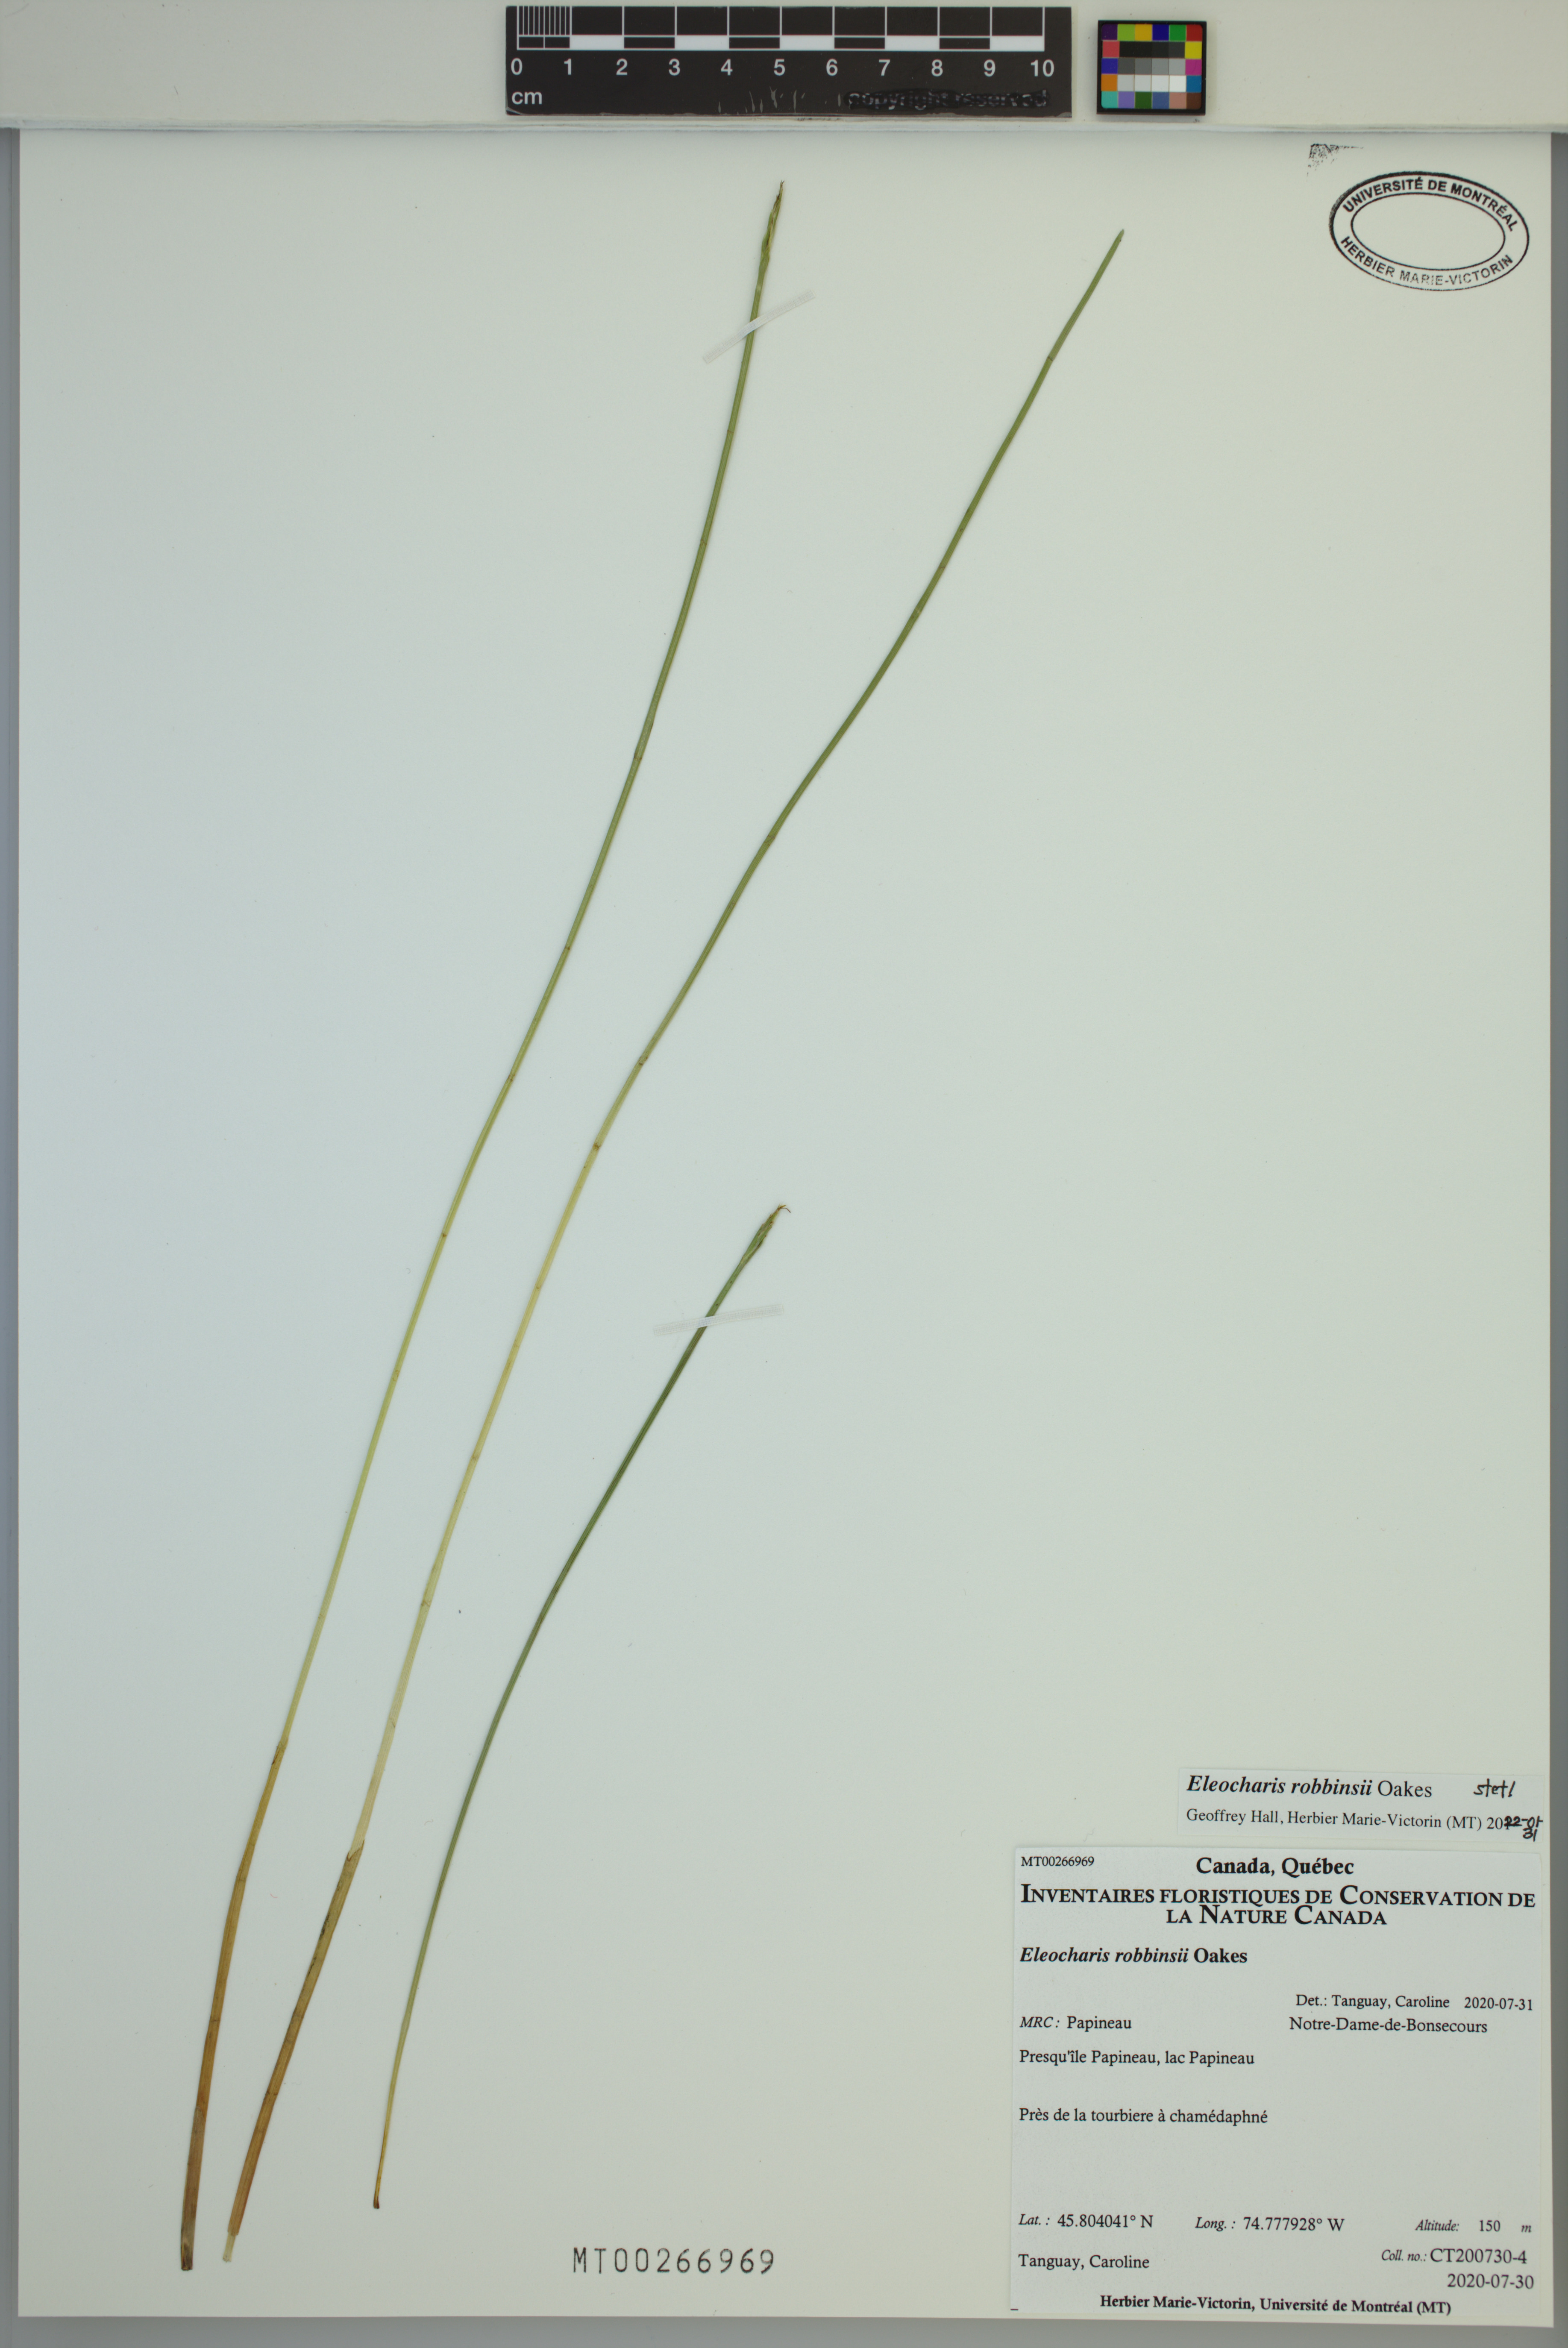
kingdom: Plantae
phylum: Tracheophyta
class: Liliopsida
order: Poales
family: Cyperaceae
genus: Eleocharis
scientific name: Eleocharis robbinsii
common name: Robbins' spikerush
